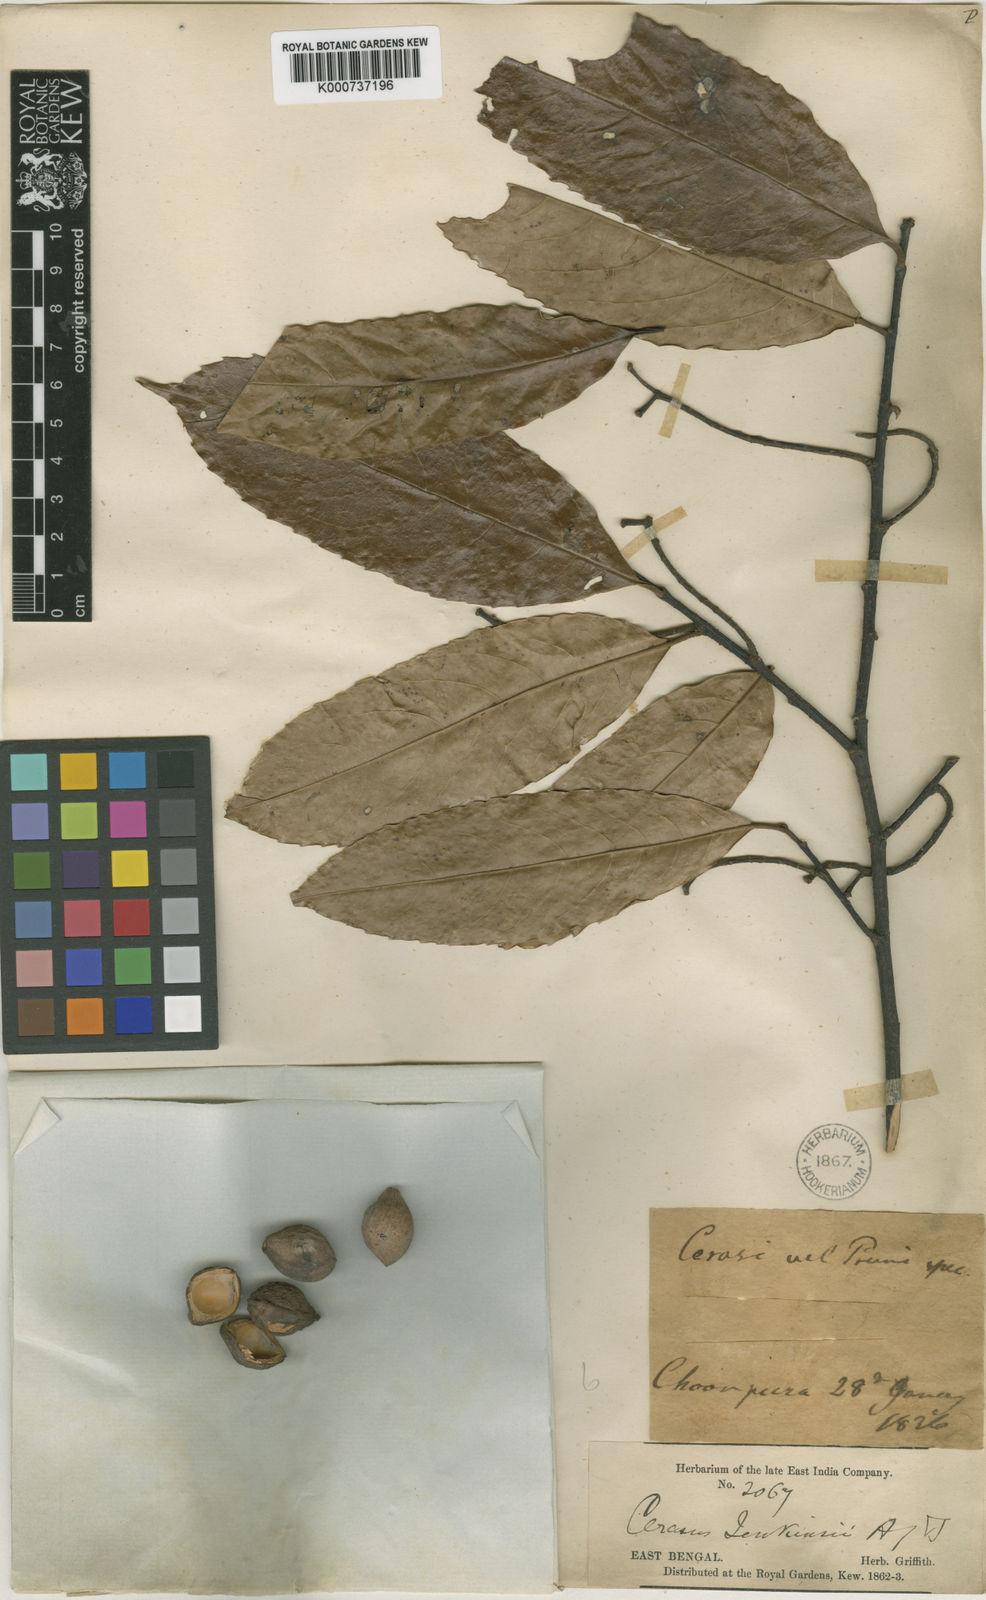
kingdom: Plantae
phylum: Tracheophyta
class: Magnoliopsida
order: Rosales
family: Rosaceae
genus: Prunus
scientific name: Prunus jenkinsii
